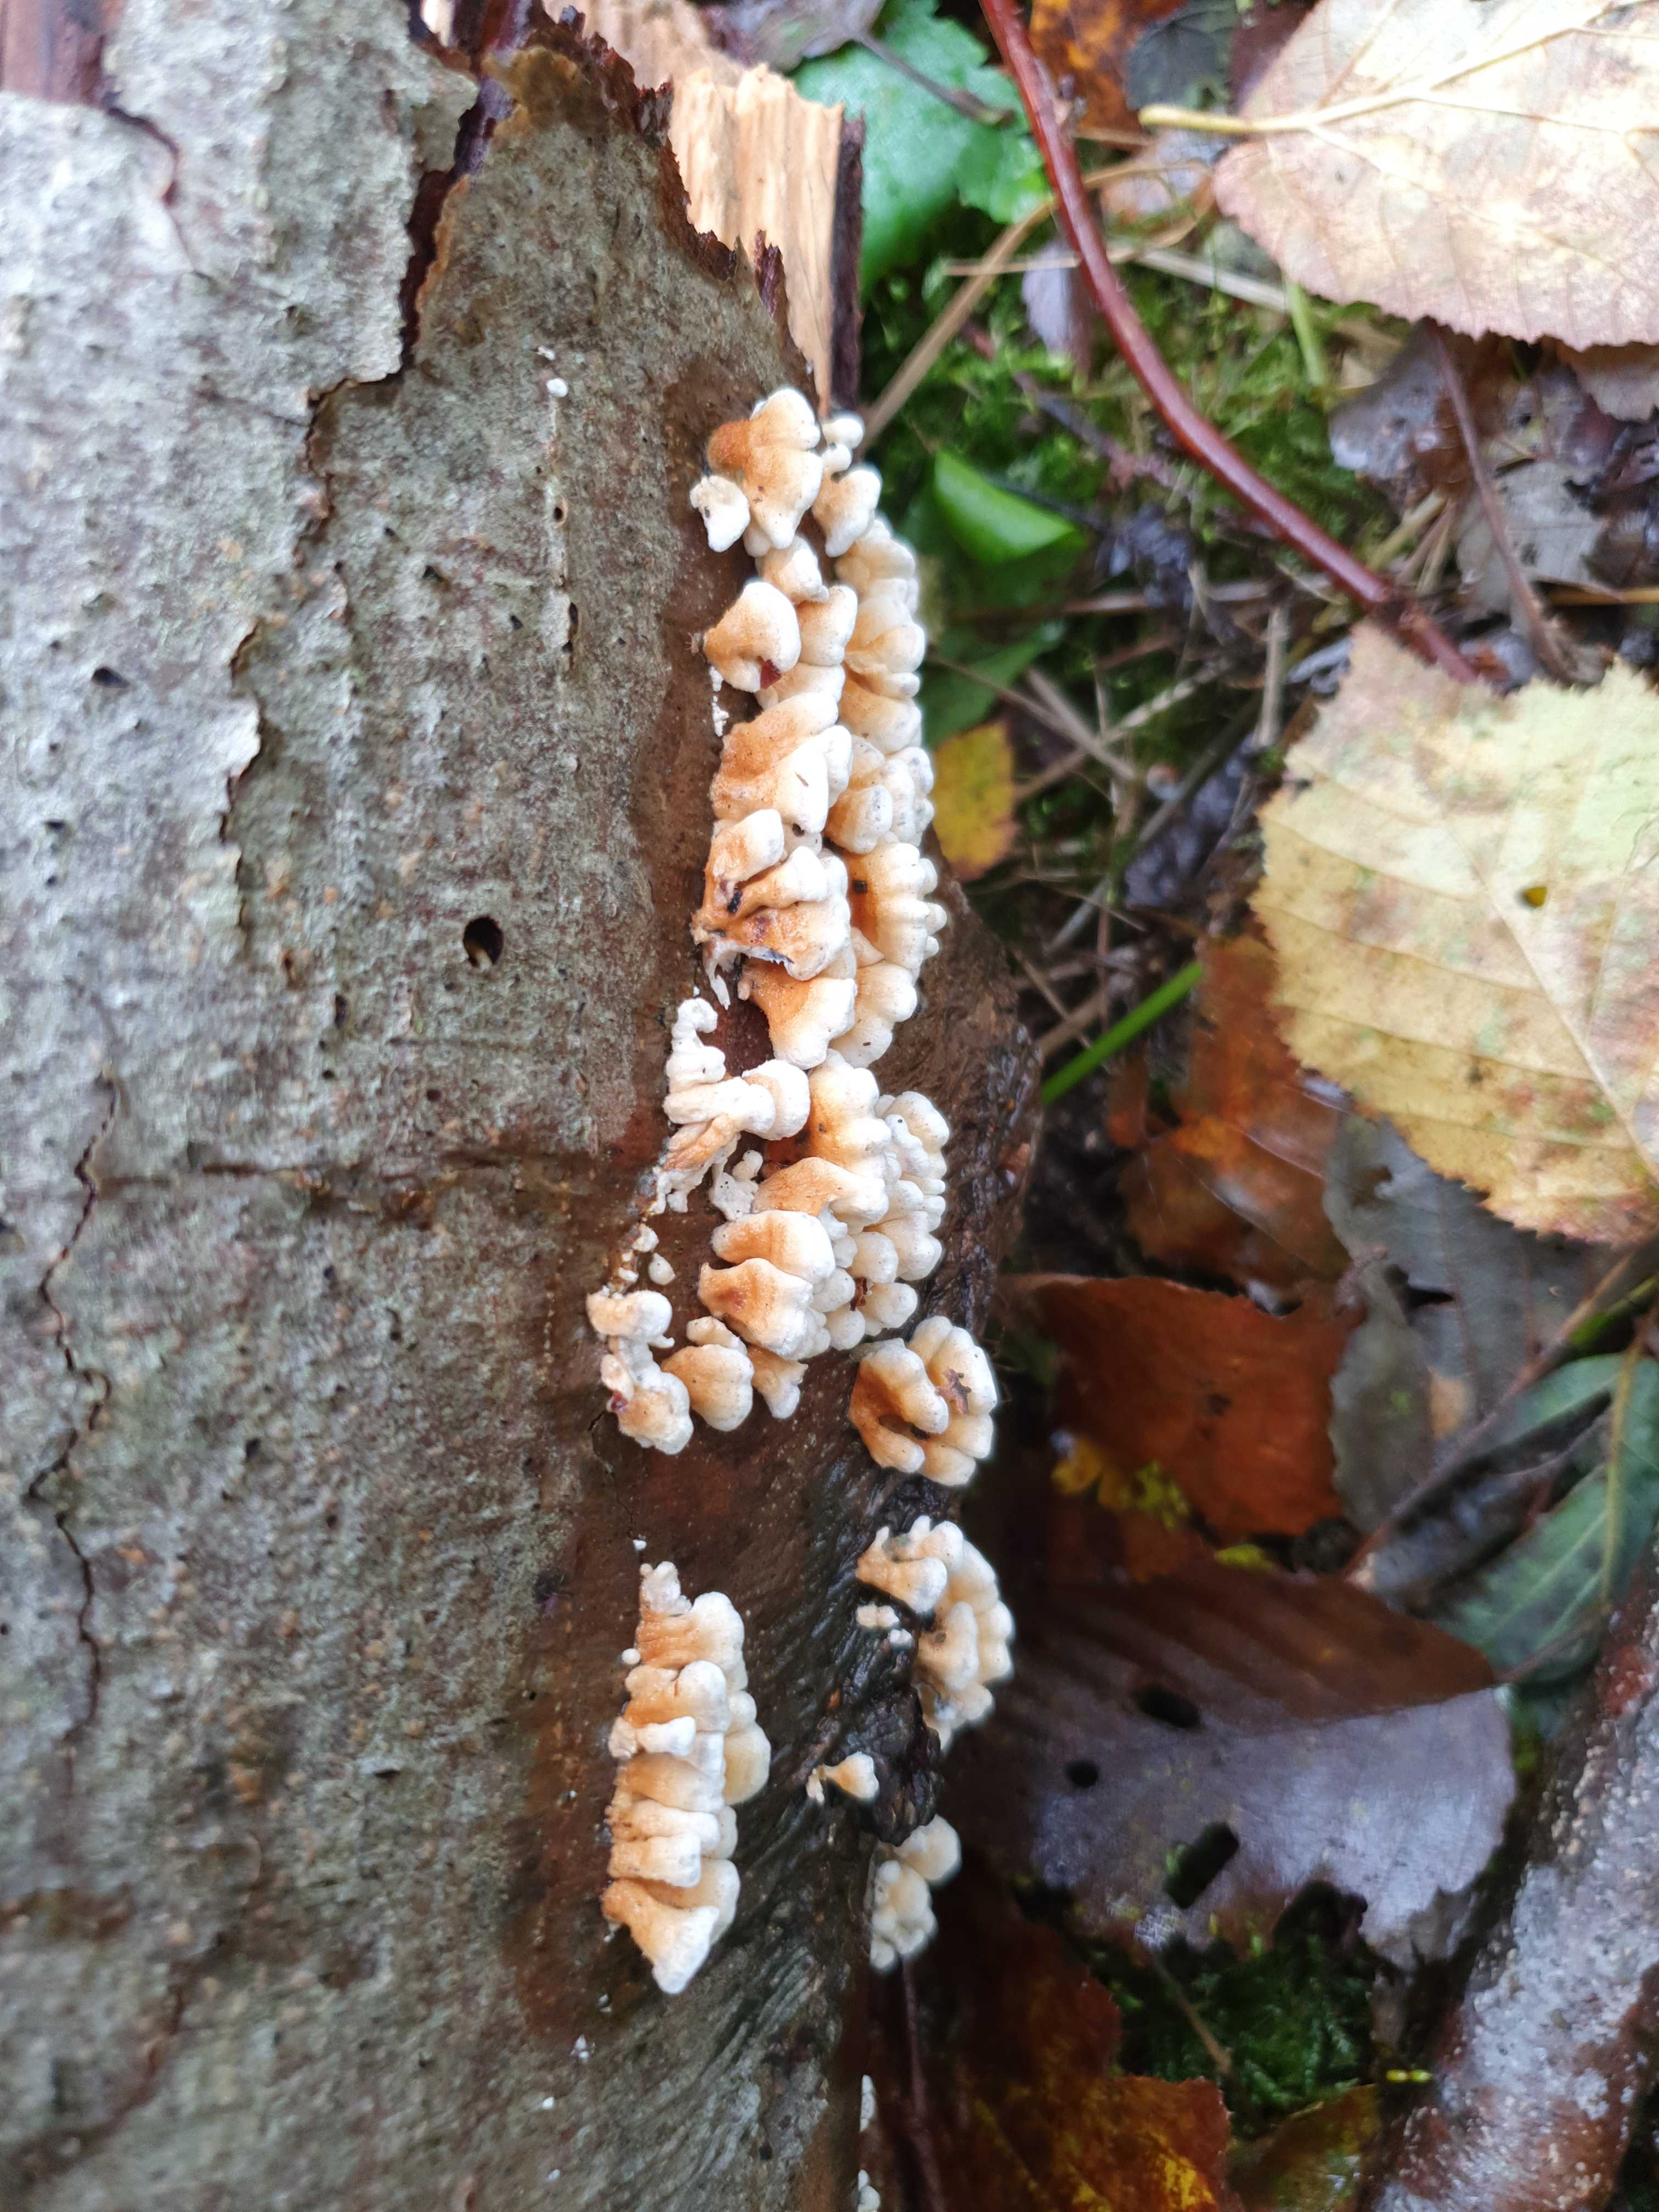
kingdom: Fungi
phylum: Basidiomycota
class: Agaricomycetes
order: Amylocorticiales
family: Amylocorticiaceae
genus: Plicaturopsis
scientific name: Plicaturopsis crispa
